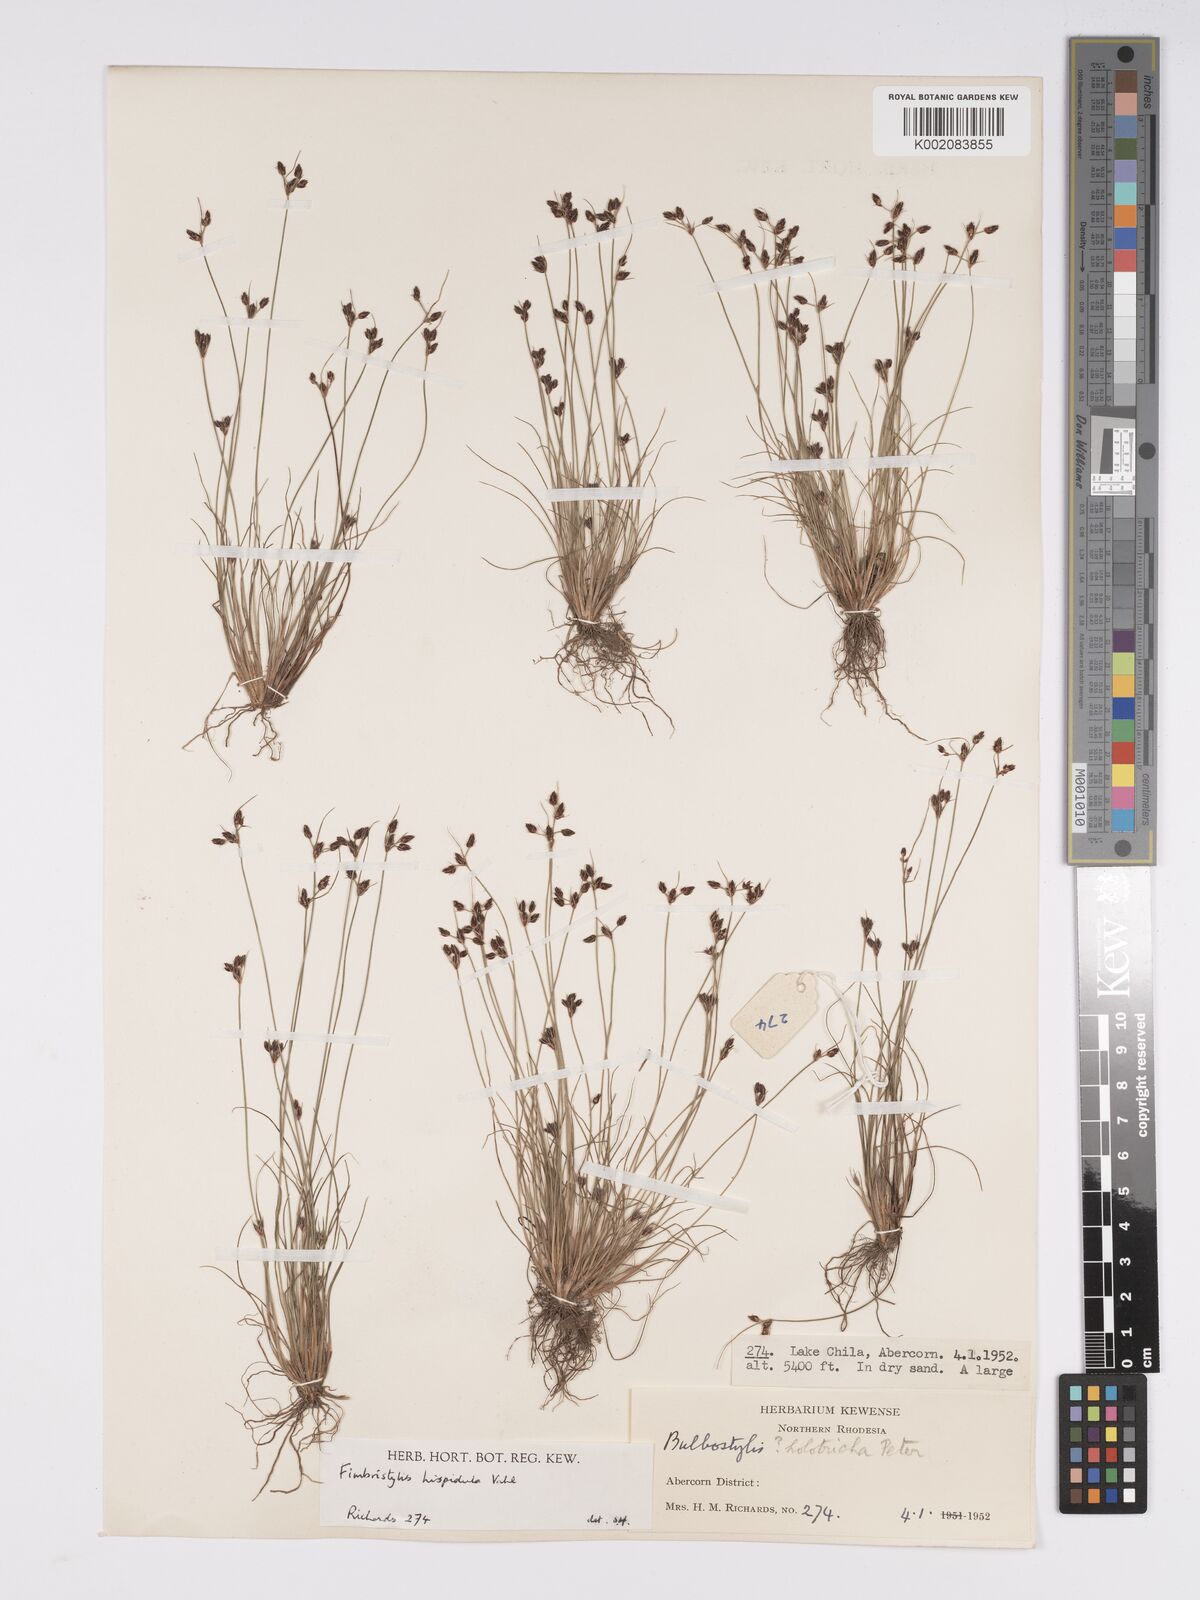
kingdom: Plantae
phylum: Tracheophyta
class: Liliopsida
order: Poales
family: Cyperaceae
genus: Bulbostylis
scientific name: Bulbostylis hispidula
